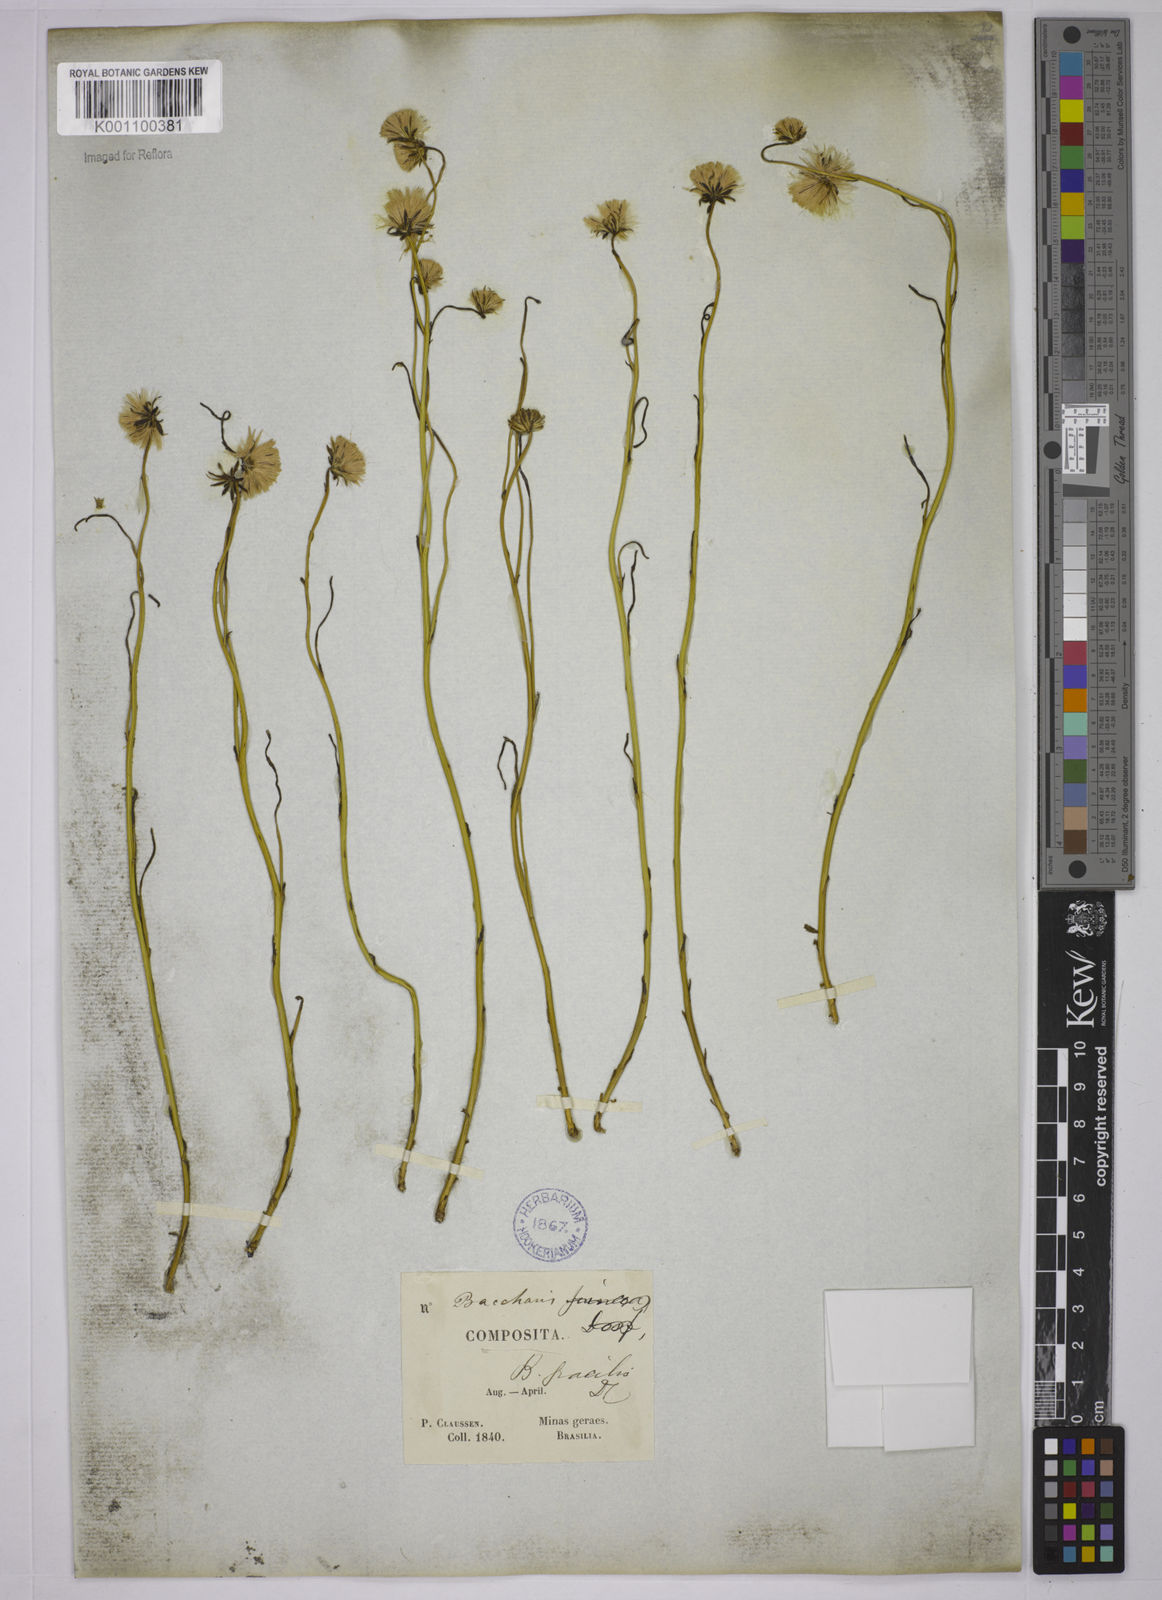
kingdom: Plantae
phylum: Tracheophyta
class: Magnoliopsida
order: Asterales
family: Asteraceae
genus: Baccharis
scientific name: Baccharis orbignyana
